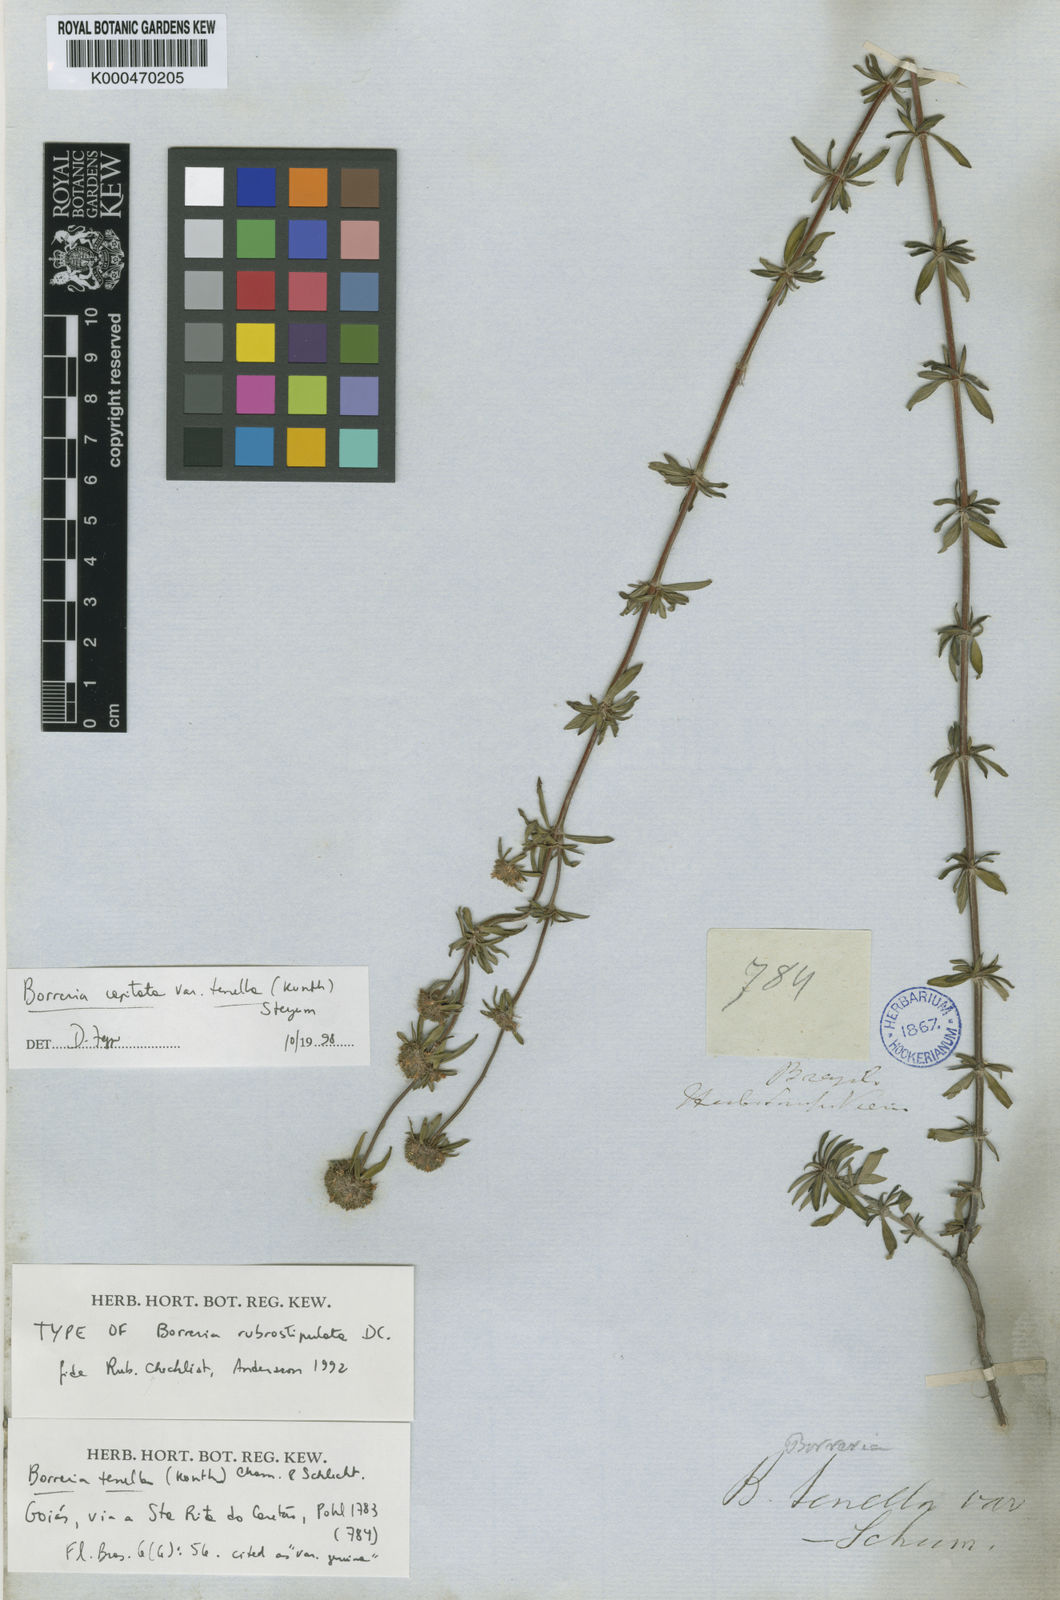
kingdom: Plantae
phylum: Tracheophyta
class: Magnoliopsida
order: Gentianales
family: Rubiaceae
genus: Spermacoce
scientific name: Spermacoce
